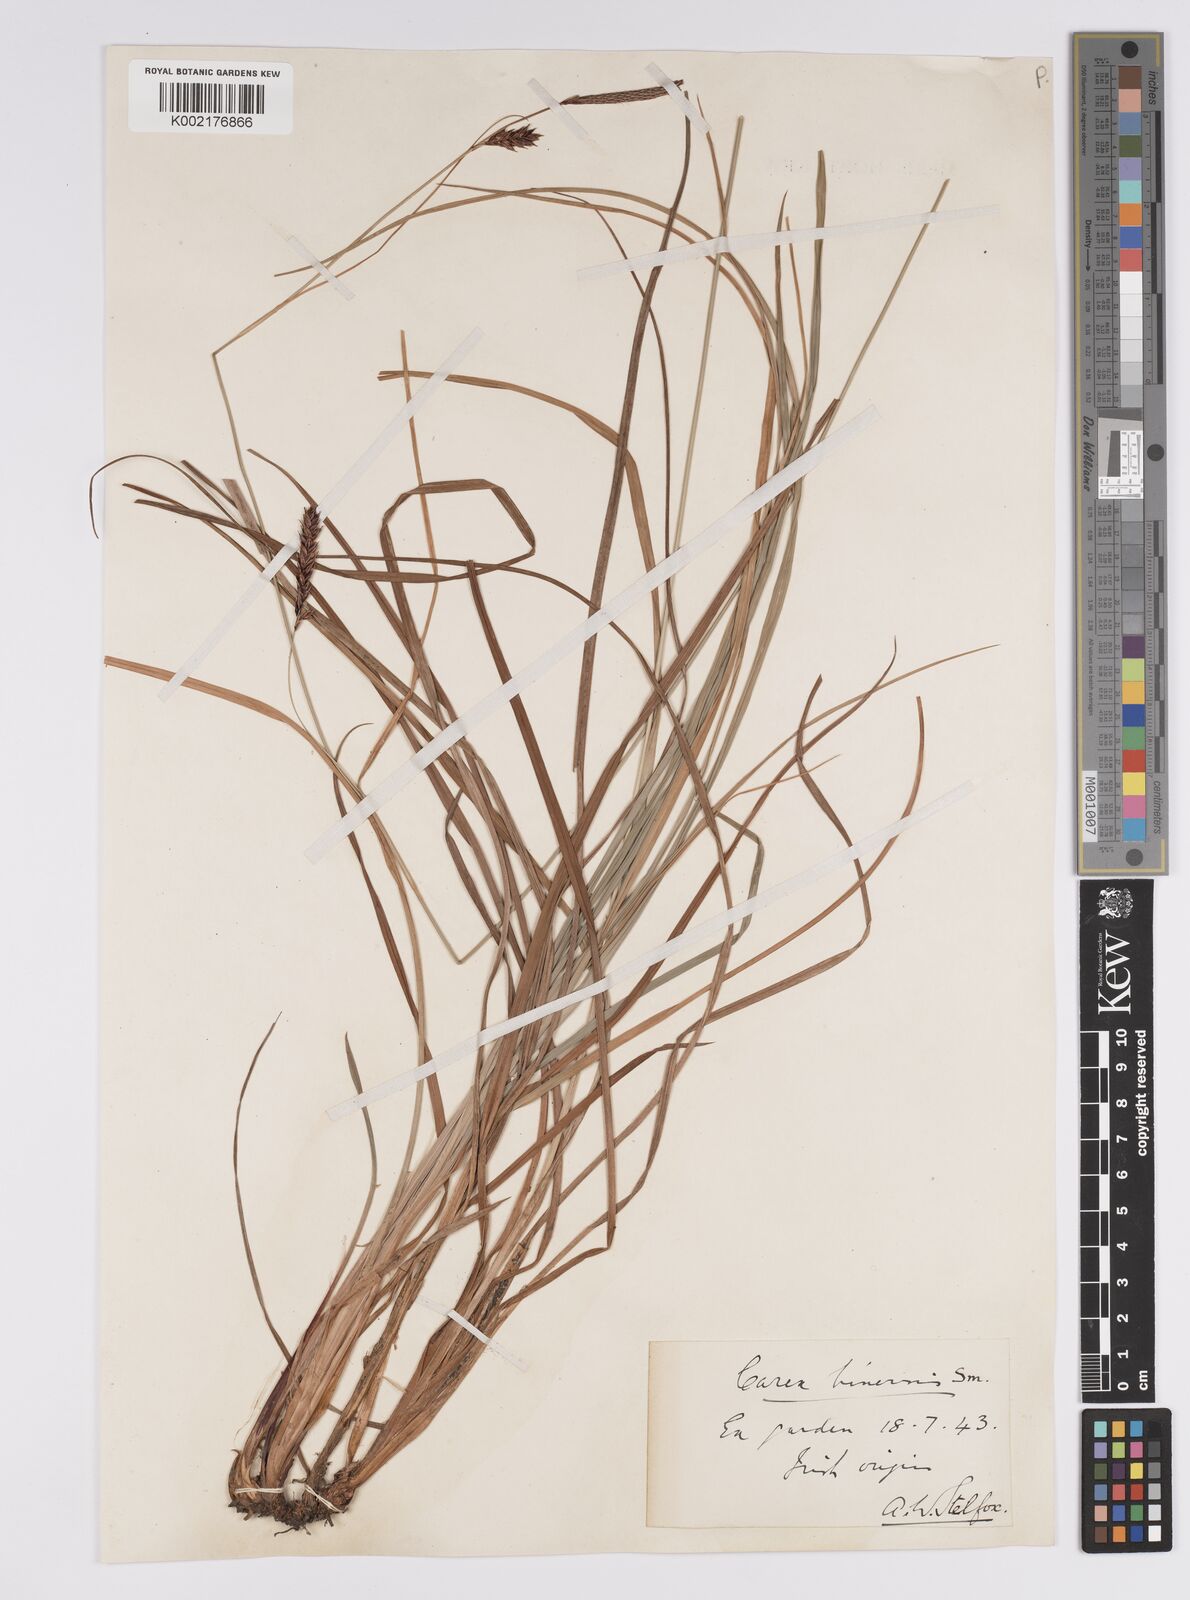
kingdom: Plantae
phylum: Tracheophyta
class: Liliopsida
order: Poales
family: Cyperaceae
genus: Carex
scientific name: Carex binervis
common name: Green-ribbed sedge
